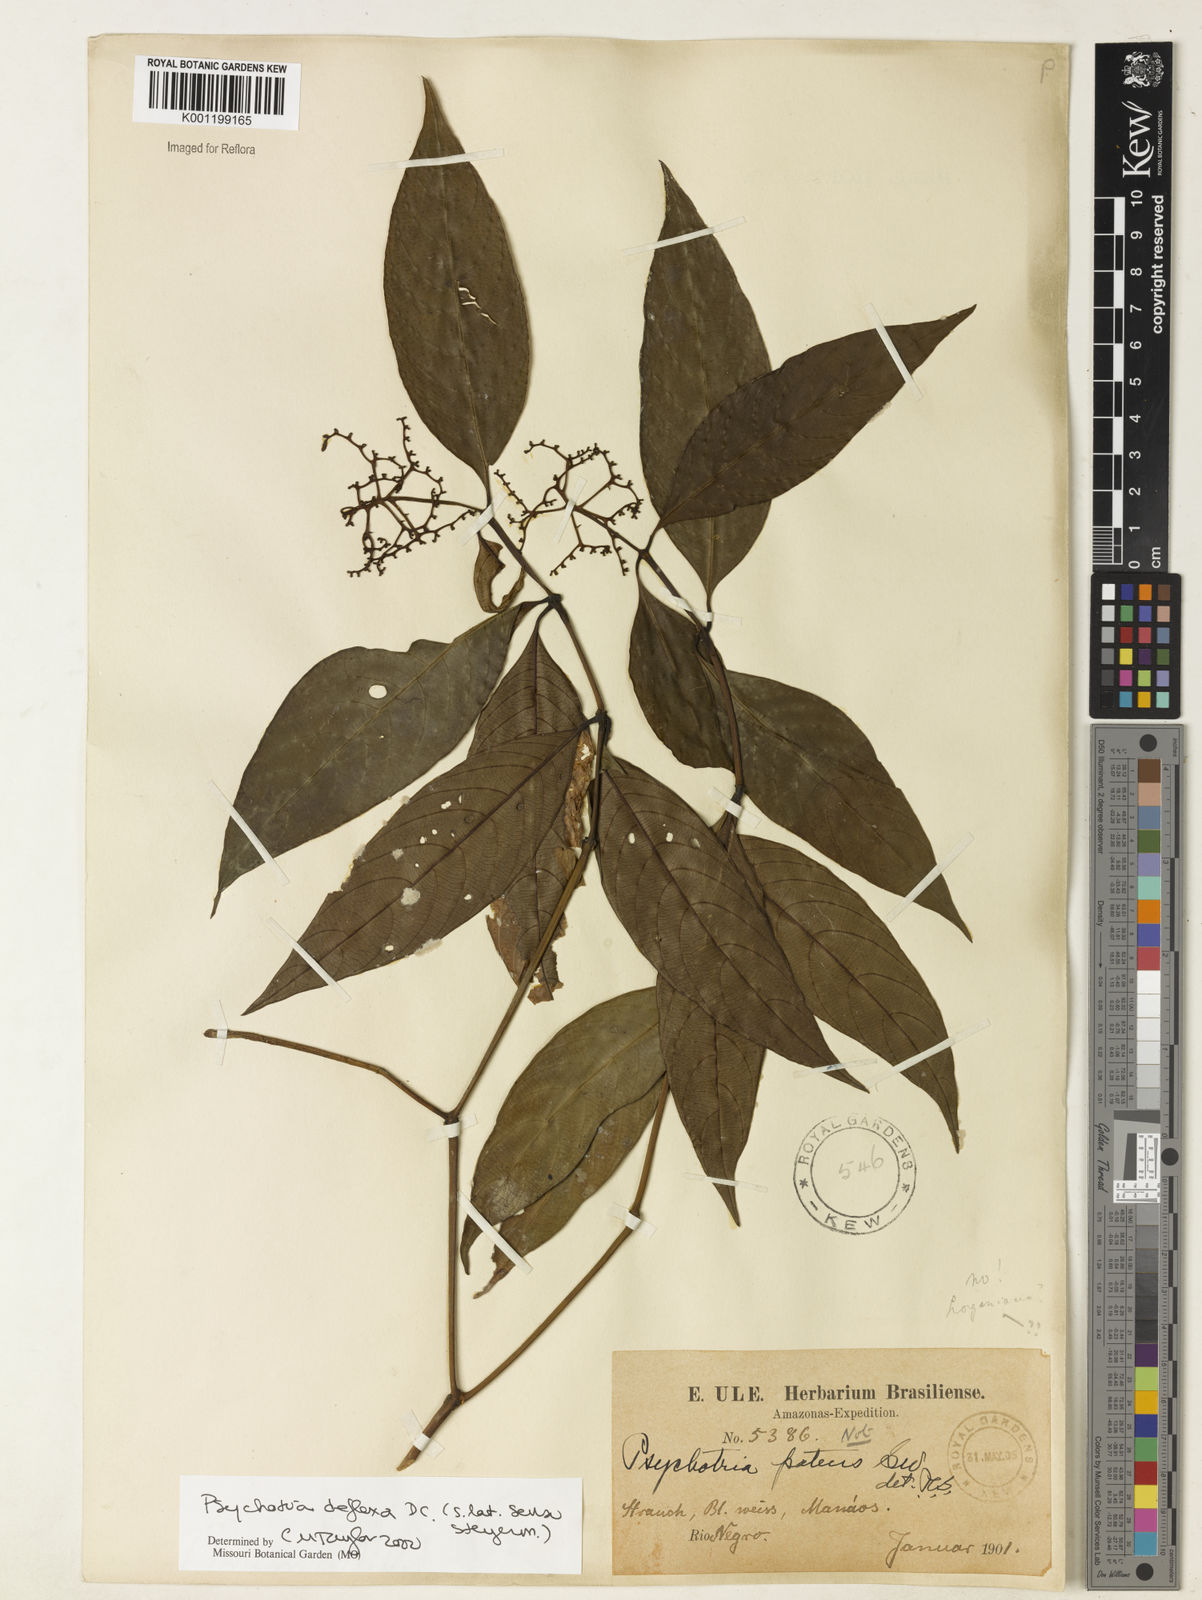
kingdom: Plantae
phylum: Tracheophyta
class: Magnoliopsida
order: Gentianales
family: Rubiaceae
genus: Palicourea
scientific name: Palicourea deflexa
